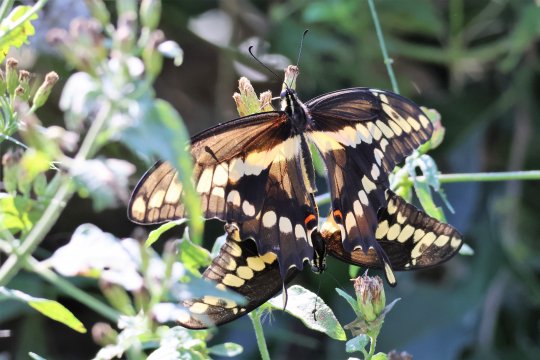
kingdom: Animalia
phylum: Arthropoda
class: Insecta
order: Lepidoptera
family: Papilionidae
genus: Papilio
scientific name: Papilio rumiko
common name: Western Giant Swallowtail
